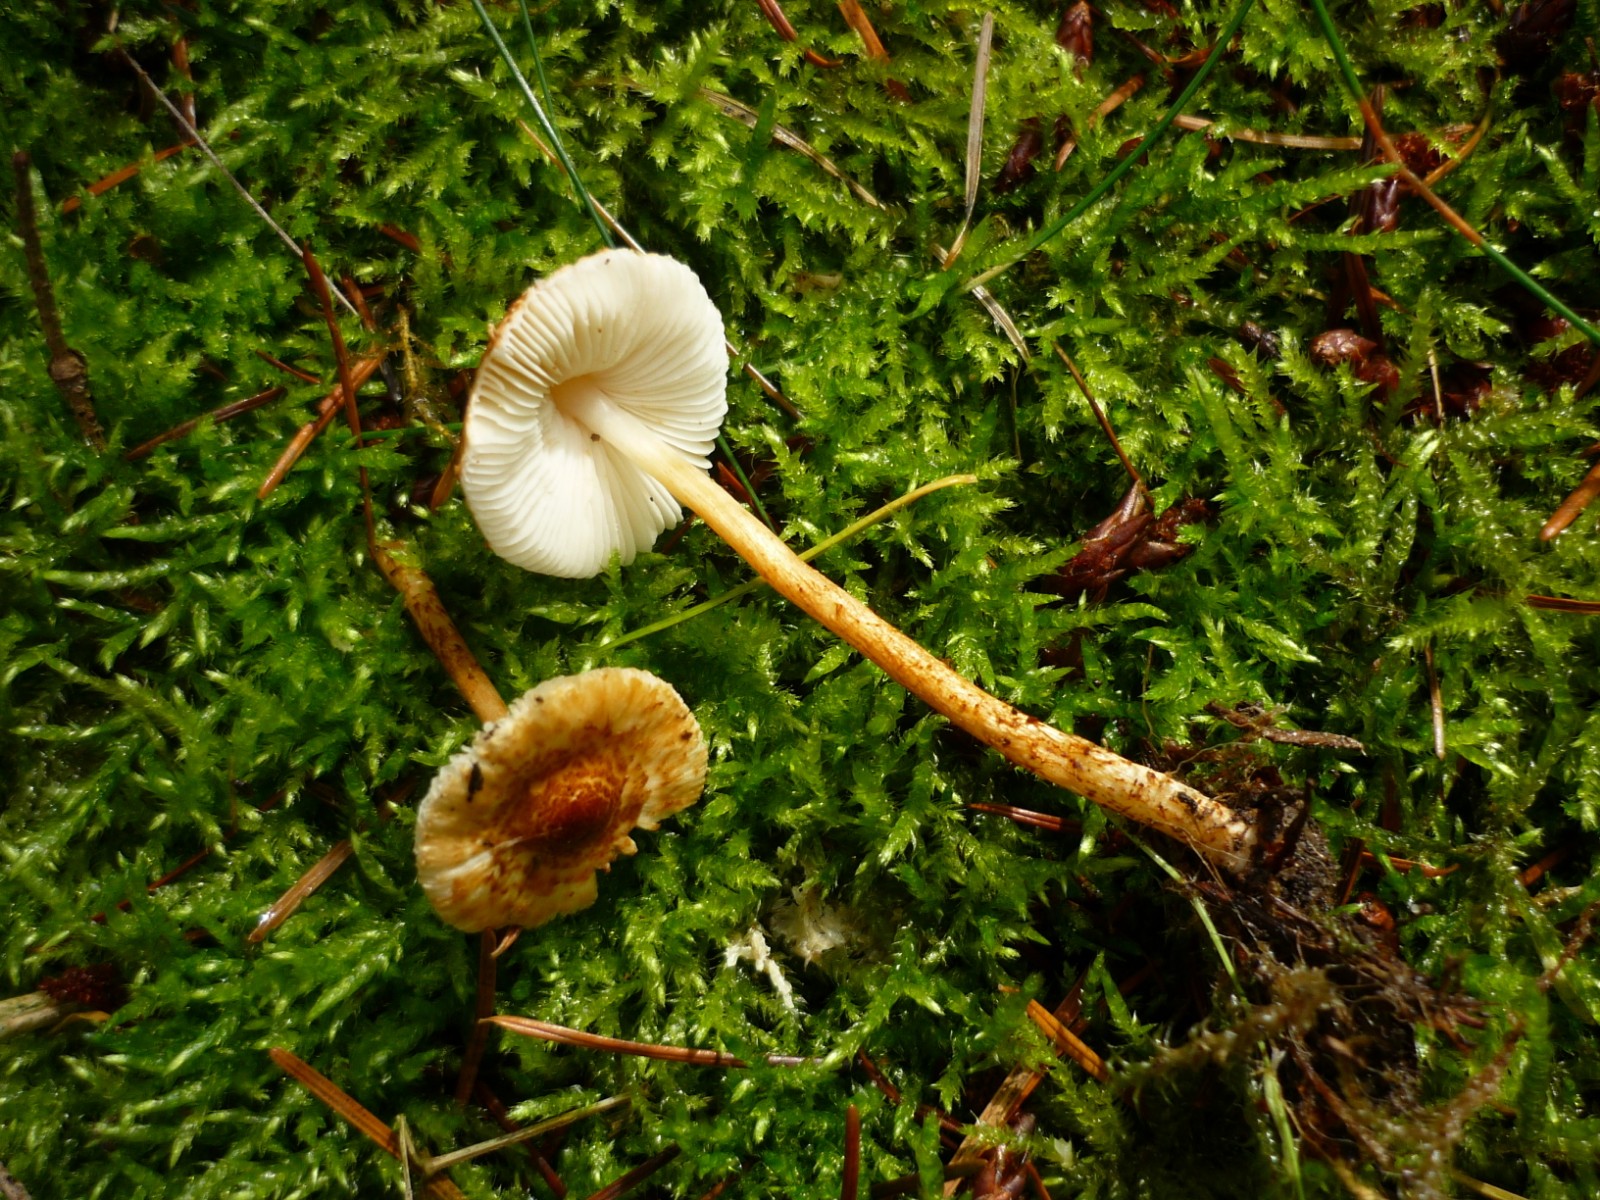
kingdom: Fungi
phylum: Basidiomycota
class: Agaricomycetes
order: Agaricales
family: Agaricaceae
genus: Lepiota
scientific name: Lepiota castanea
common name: kastaniebrun parasolhat
